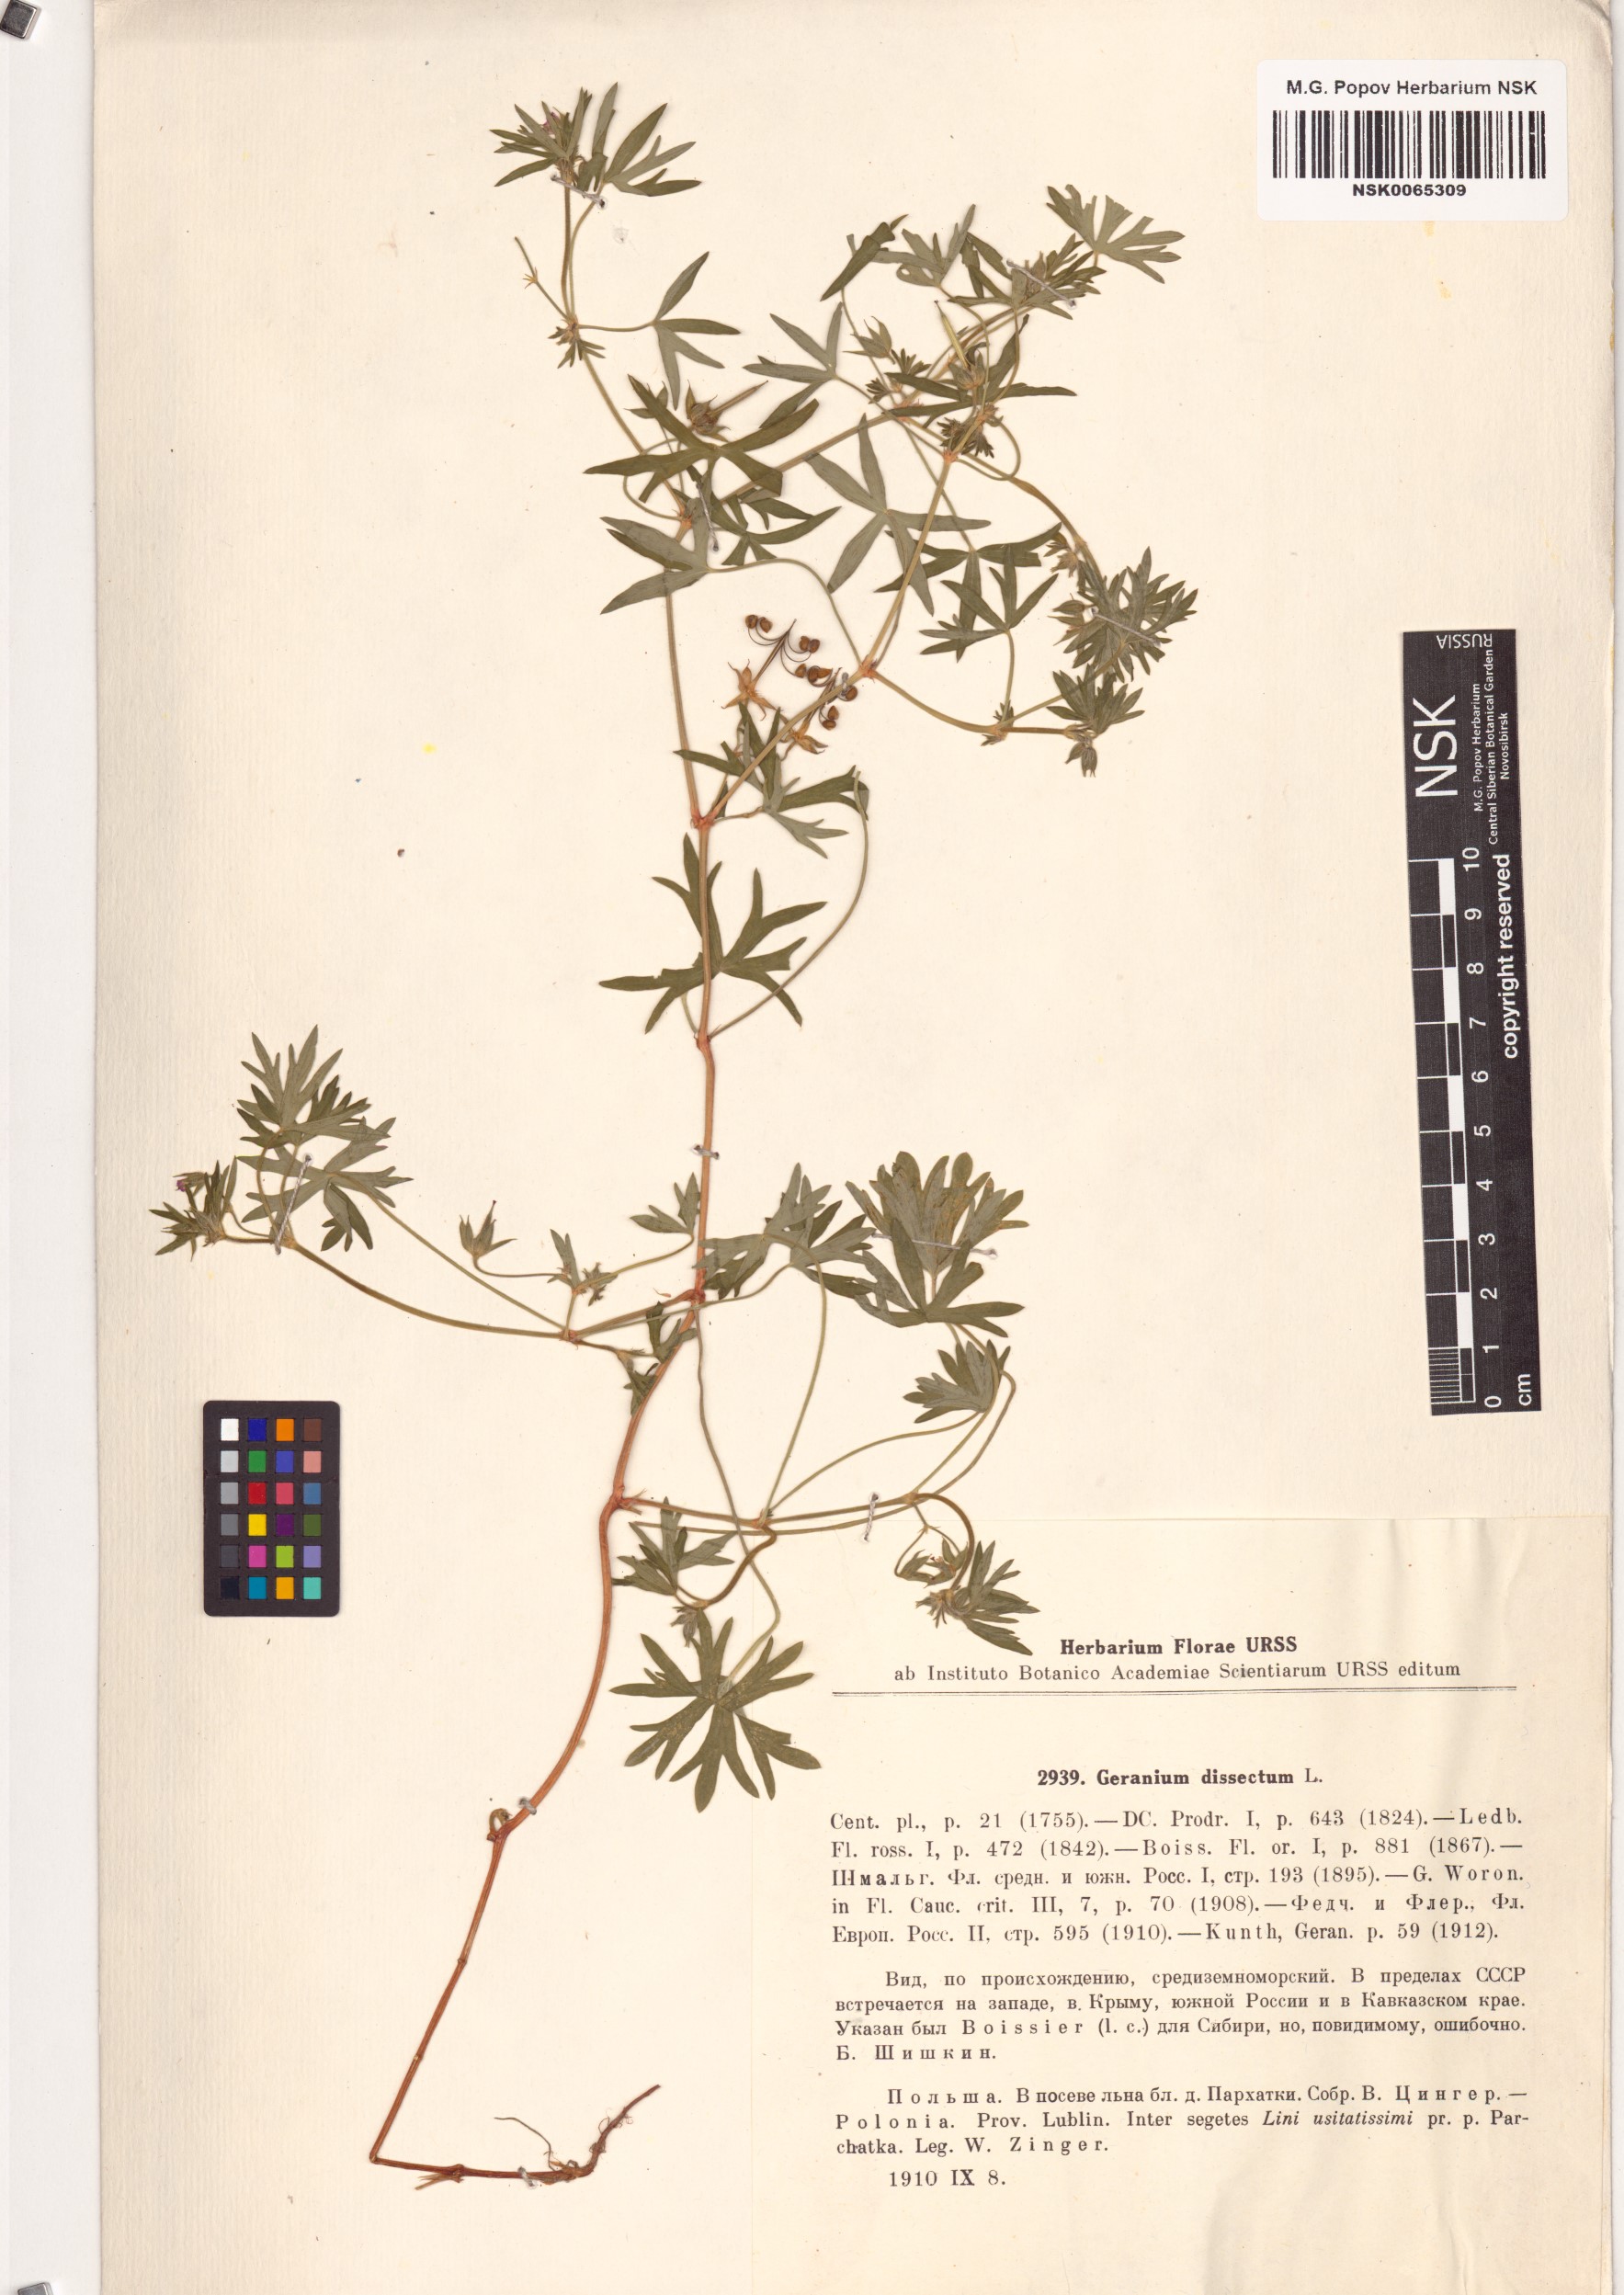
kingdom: Plantae
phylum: Tracheophyta
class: Magnoliopsida
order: Geraniales
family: Geraniaceae
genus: Geranium
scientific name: Geranium dissectum
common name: Cut-leaved crane's-bill
